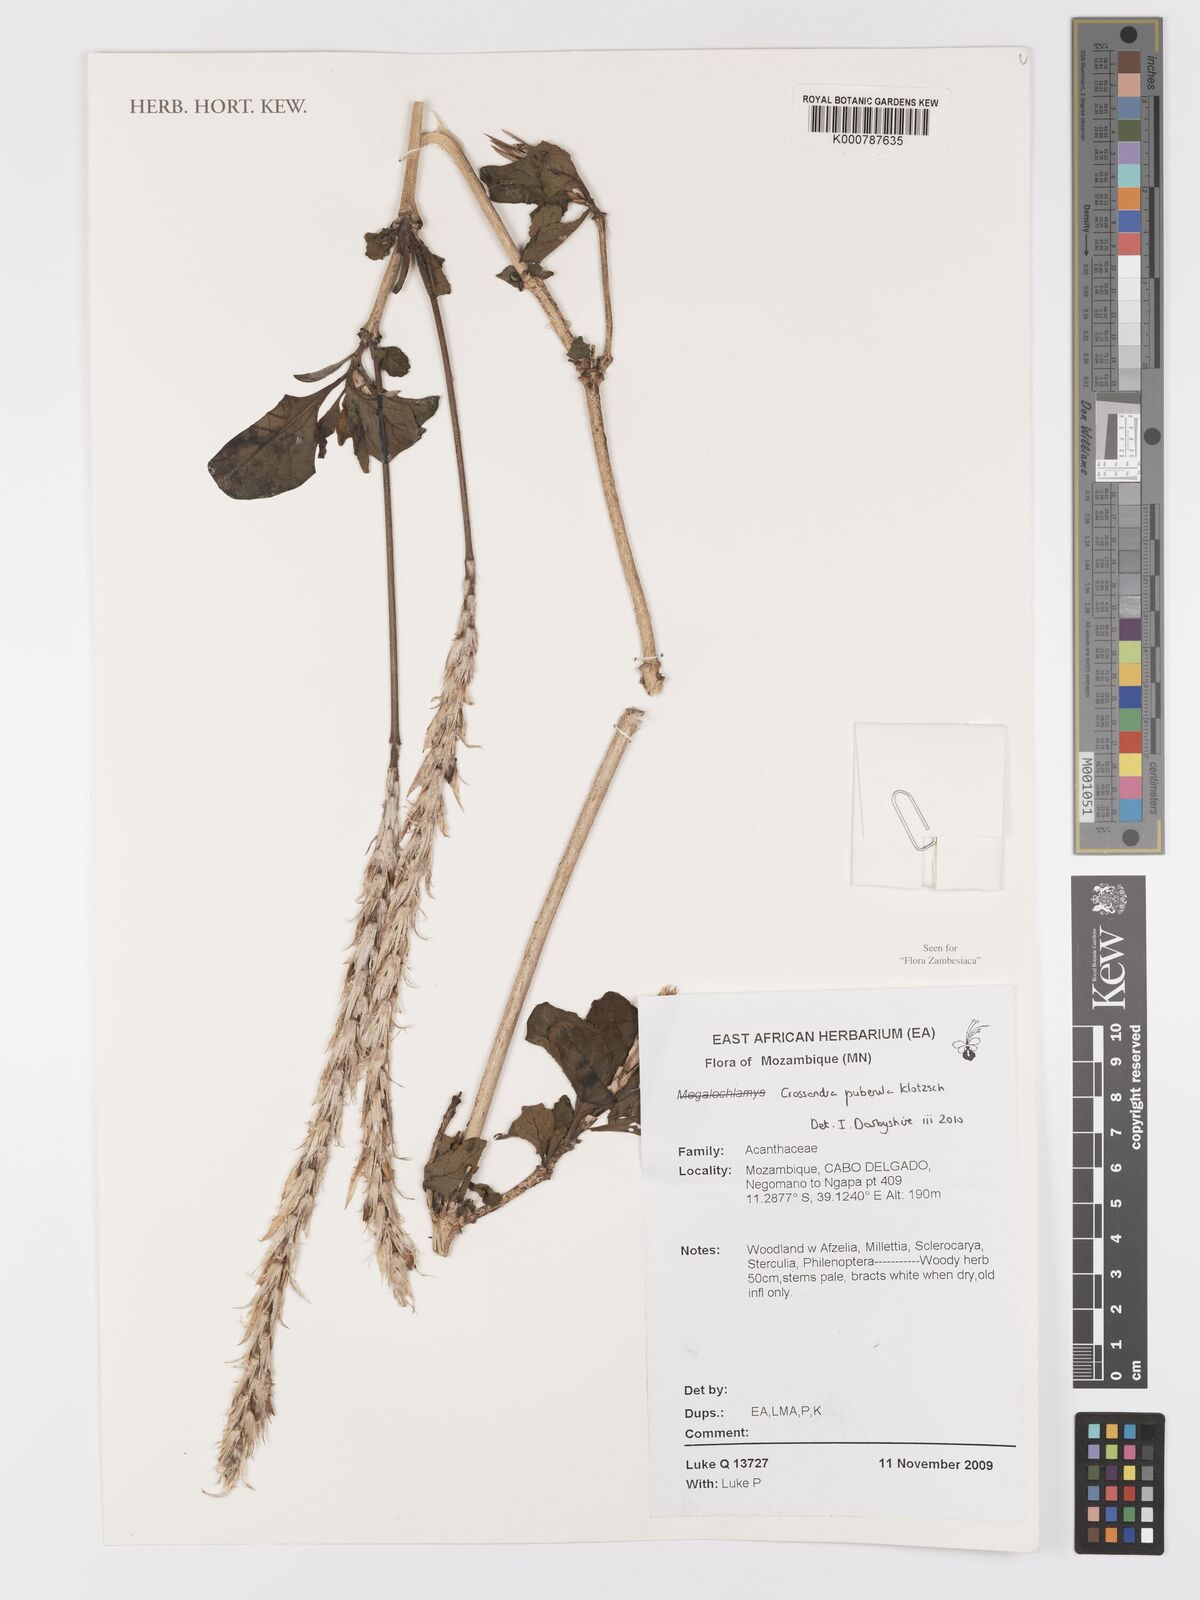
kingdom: Plantae
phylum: Tracheophyta
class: Magnoliopsida
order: Lamiales
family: Acanthaceae
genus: Crossandra
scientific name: Crossandra puberula
